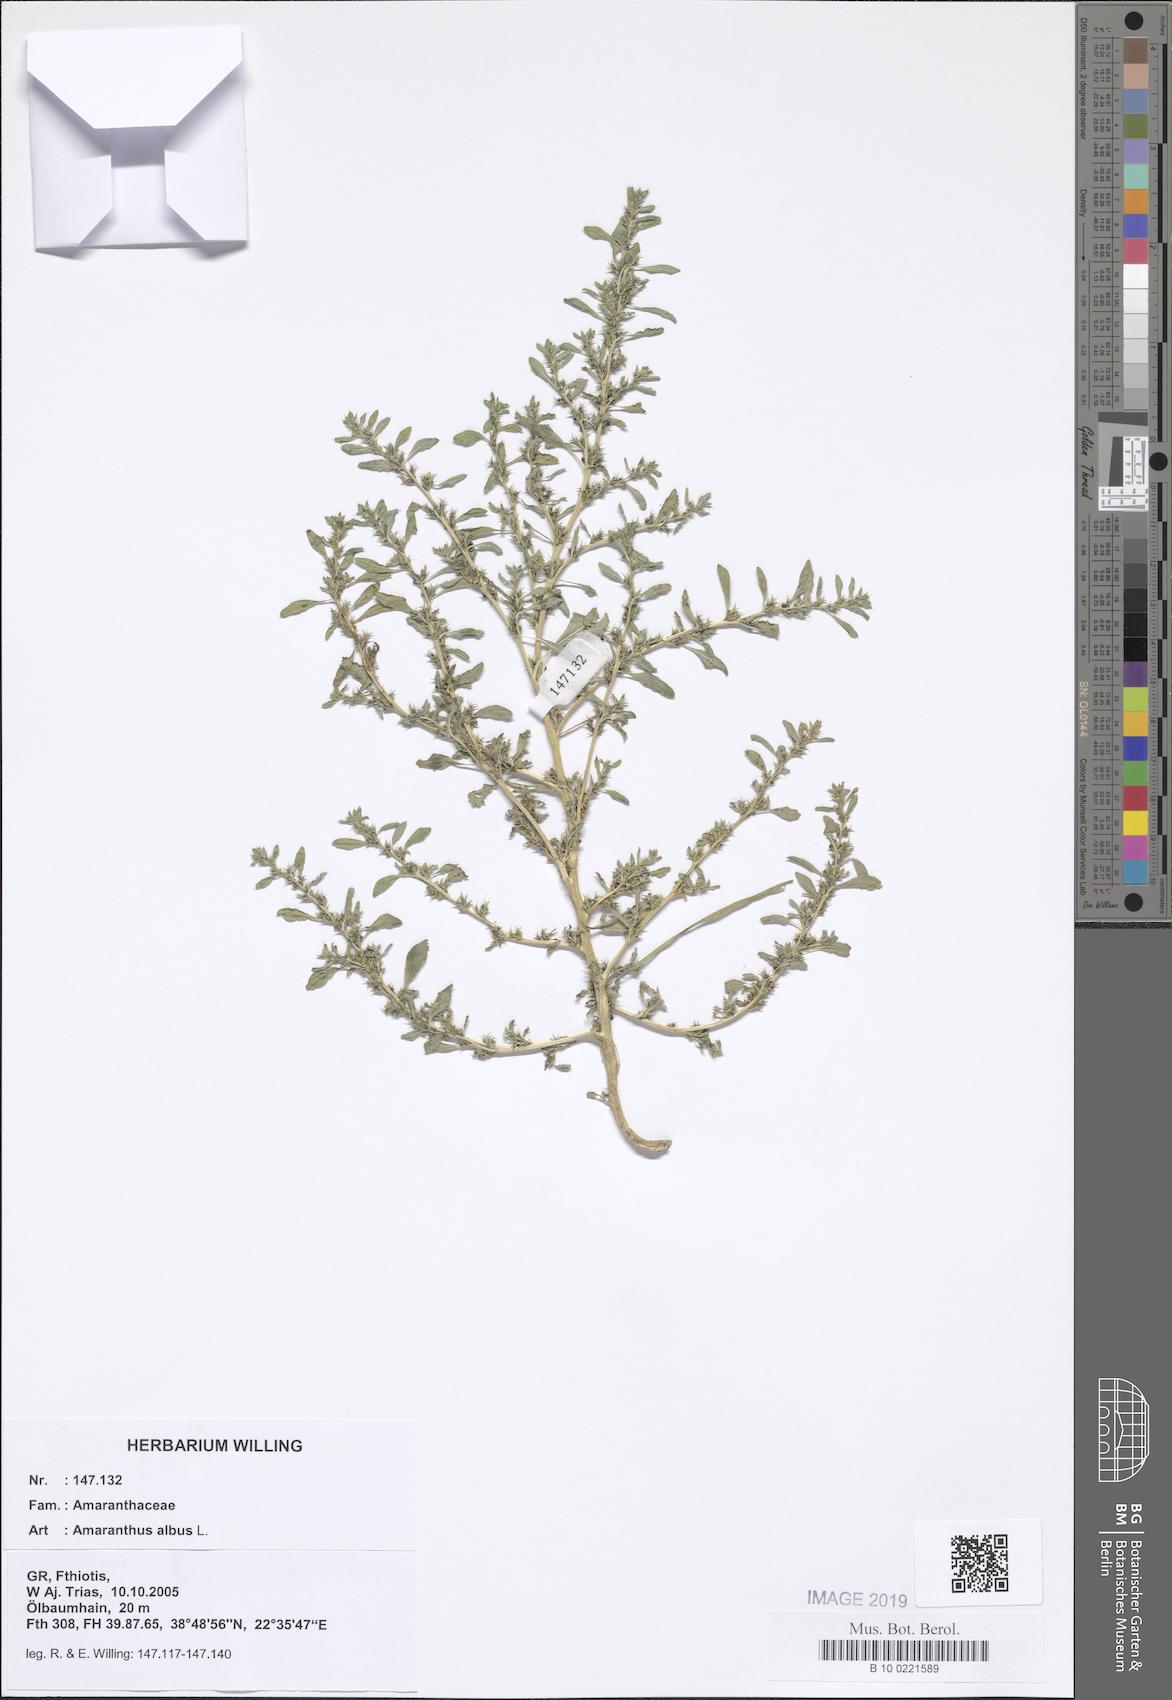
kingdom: Plantae
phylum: Tracheophyta
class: Magnoliopsida
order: Caryophyllales
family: Amaranthaceae
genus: Amaranthus
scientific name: Amaranthus albus
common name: White pigweed
